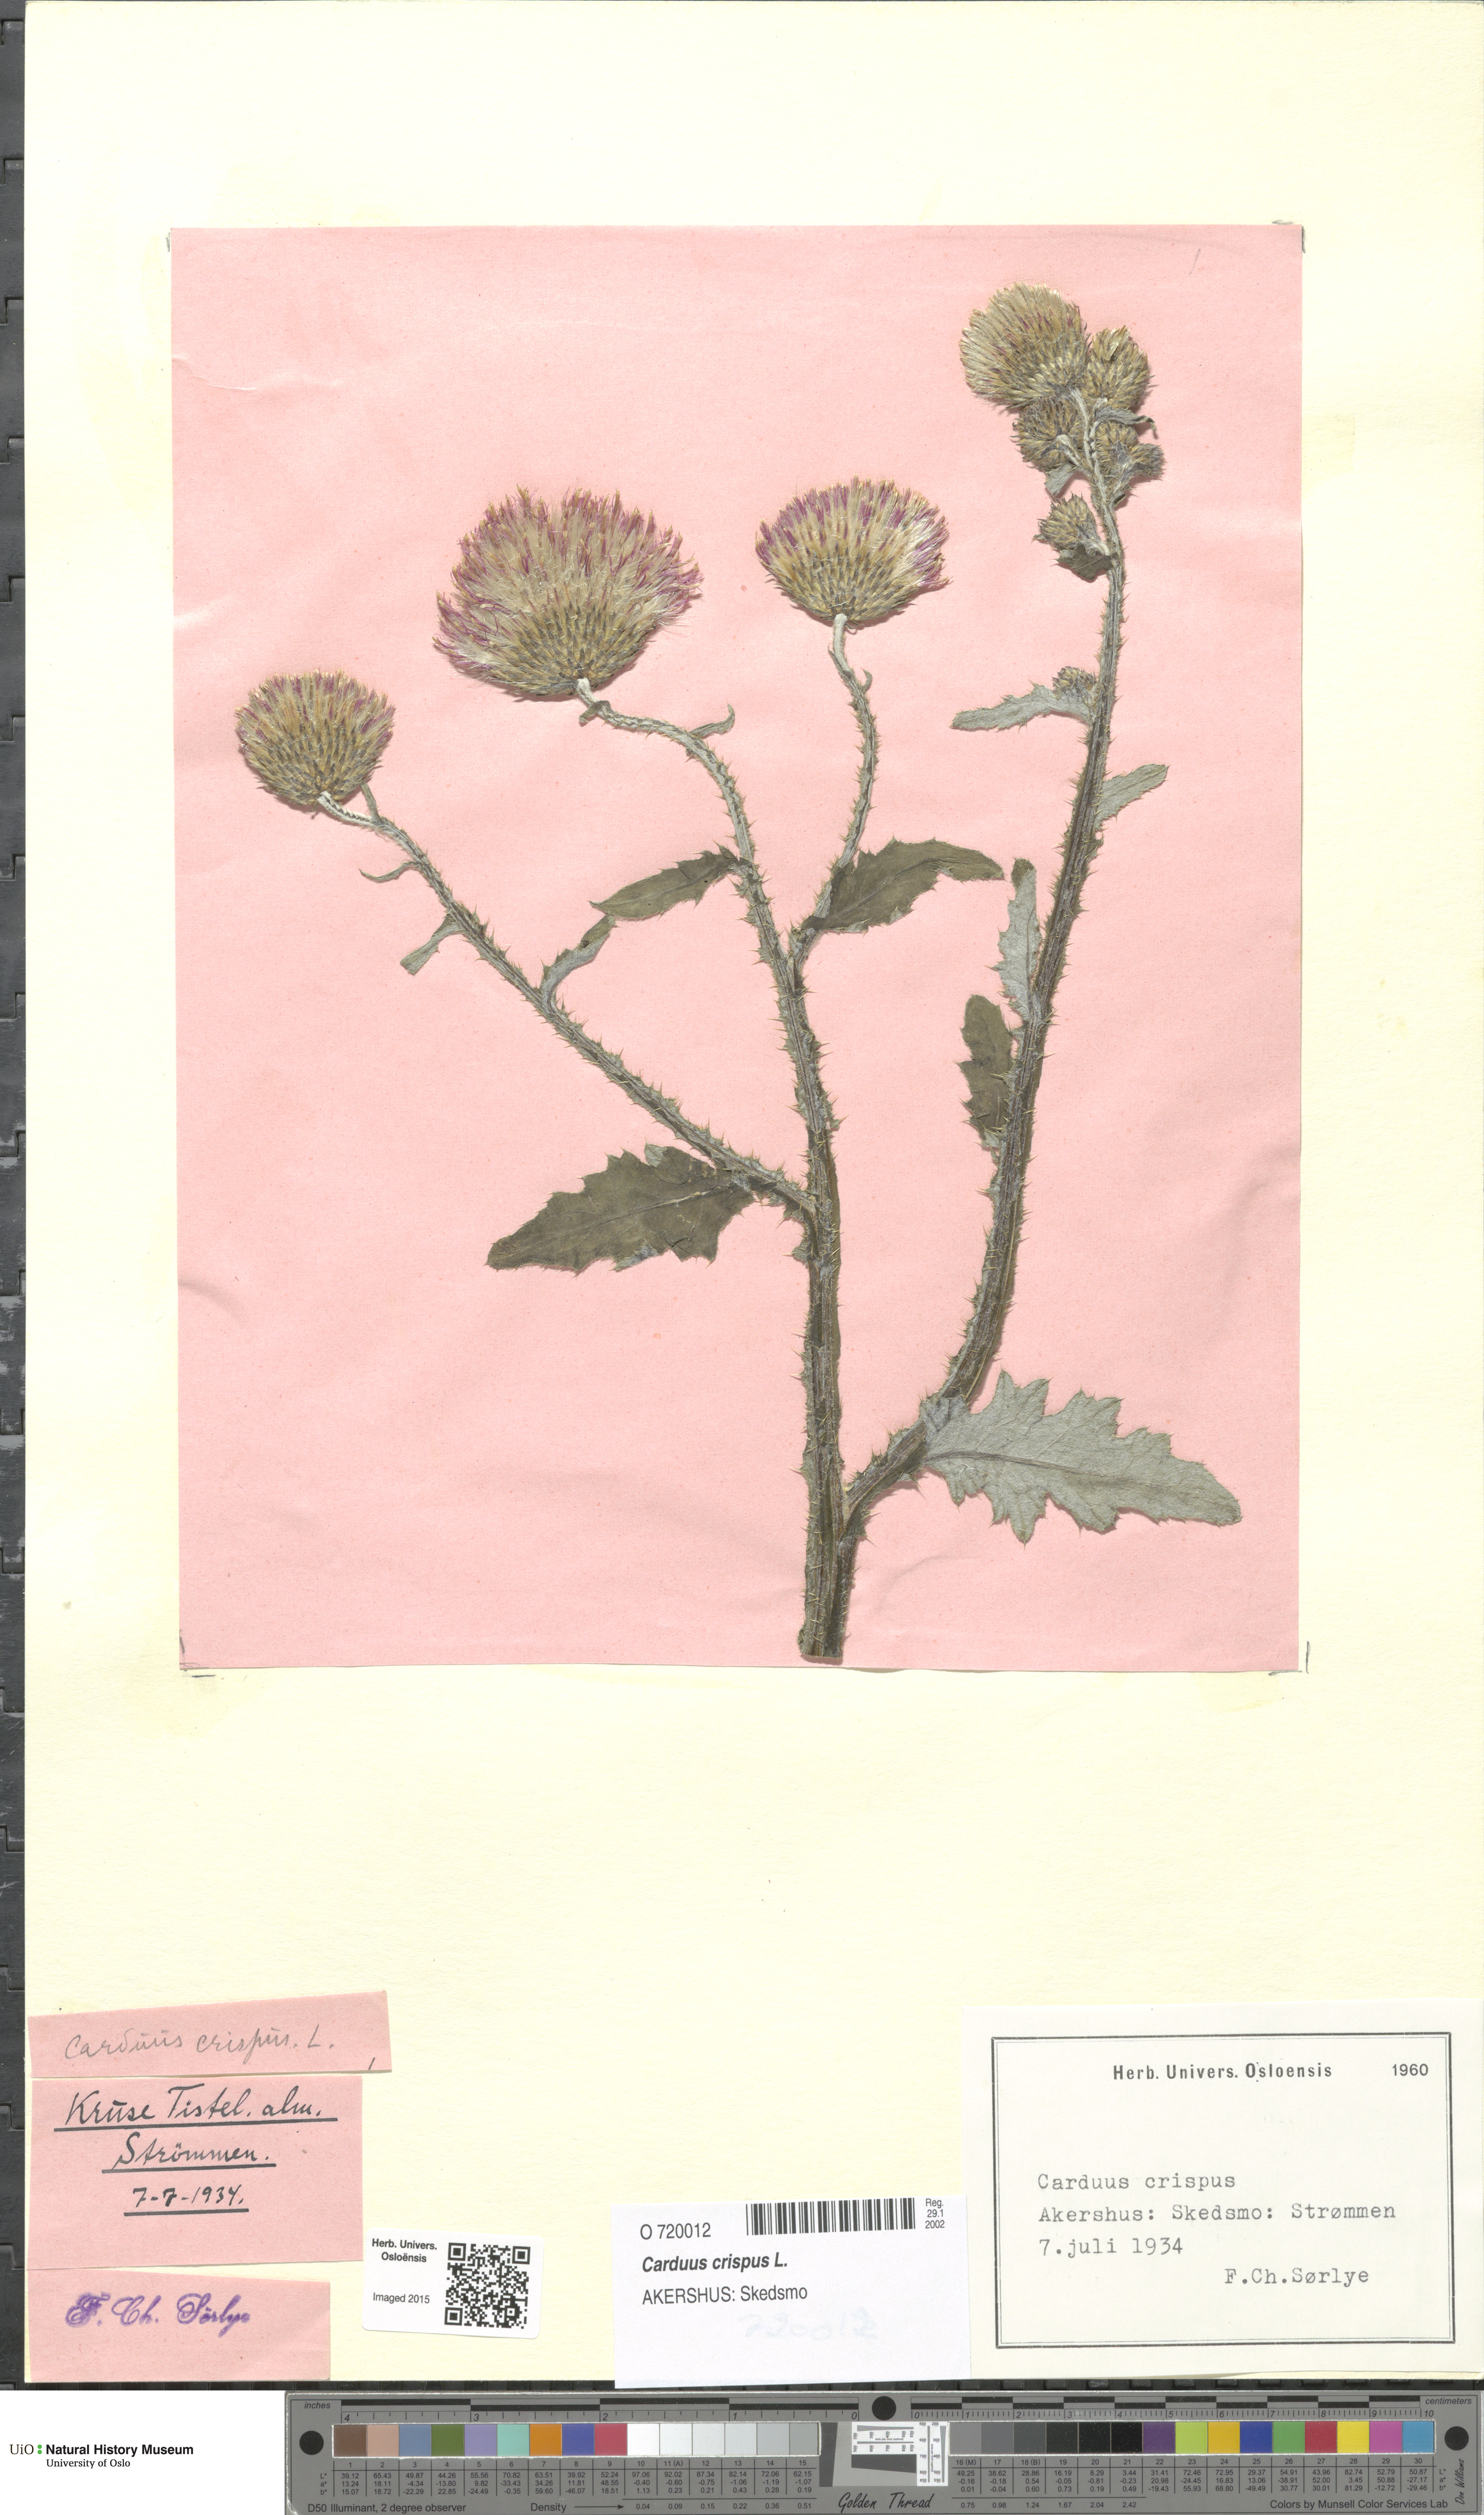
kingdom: Plantae
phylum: Tracheophyta
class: Magnoliopsida
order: Asterales
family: Asteraceae
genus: Carduus
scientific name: Carduus crispus
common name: Welted thistle
